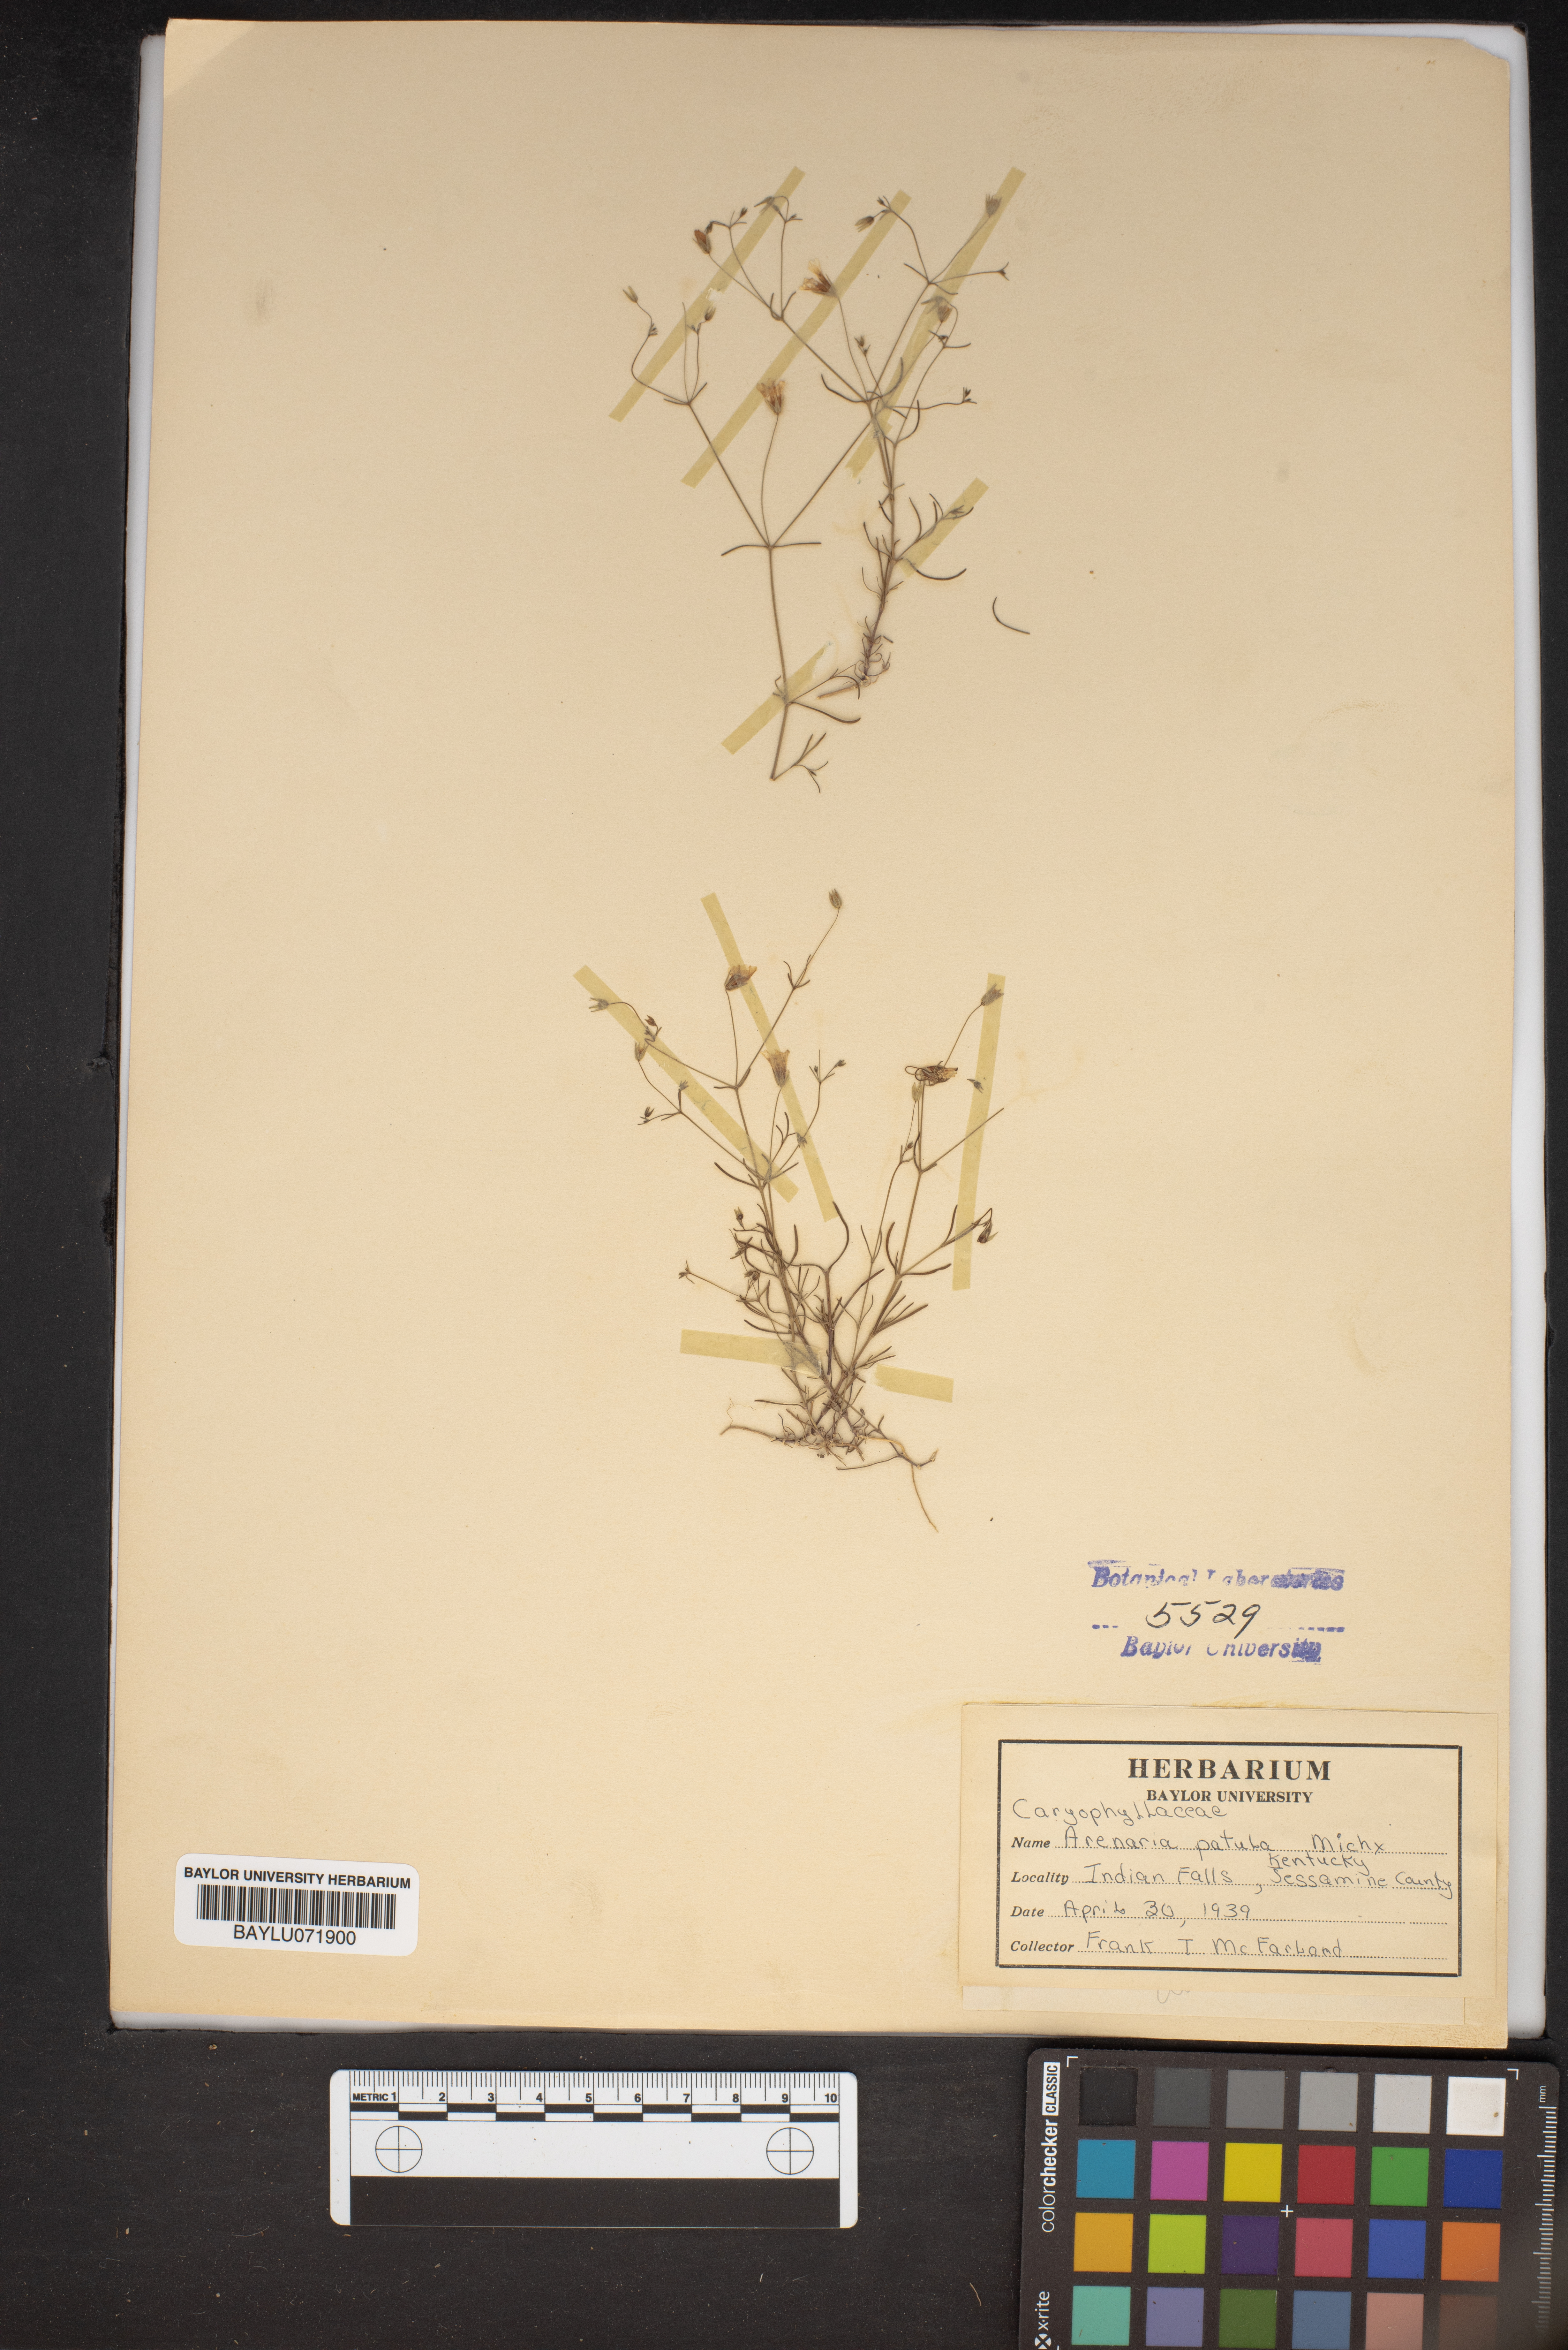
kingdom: Plantae
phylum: Tracheophyta
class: Magnoliopsida
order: Caryophyllales
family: Caryophyllaceae
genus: Mononeuria
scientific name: Mononeuria patula
